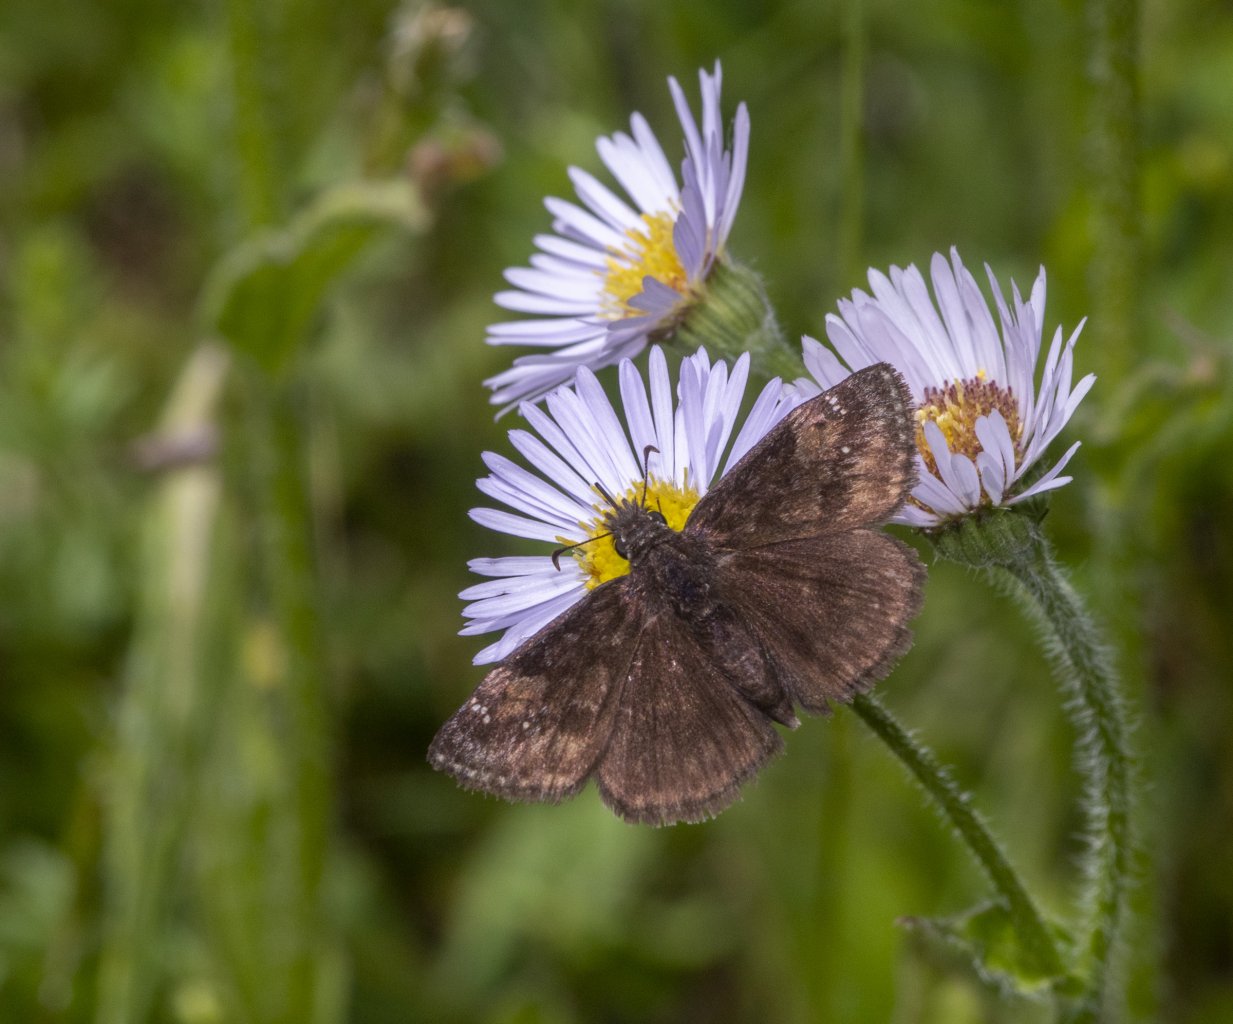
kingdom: Animalia
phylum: Arthropoda
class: Insecta
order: Lepidoptera
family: Hesperiidae
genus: Gesta
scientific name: Gesta
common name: Wild Indigo Duskywing
